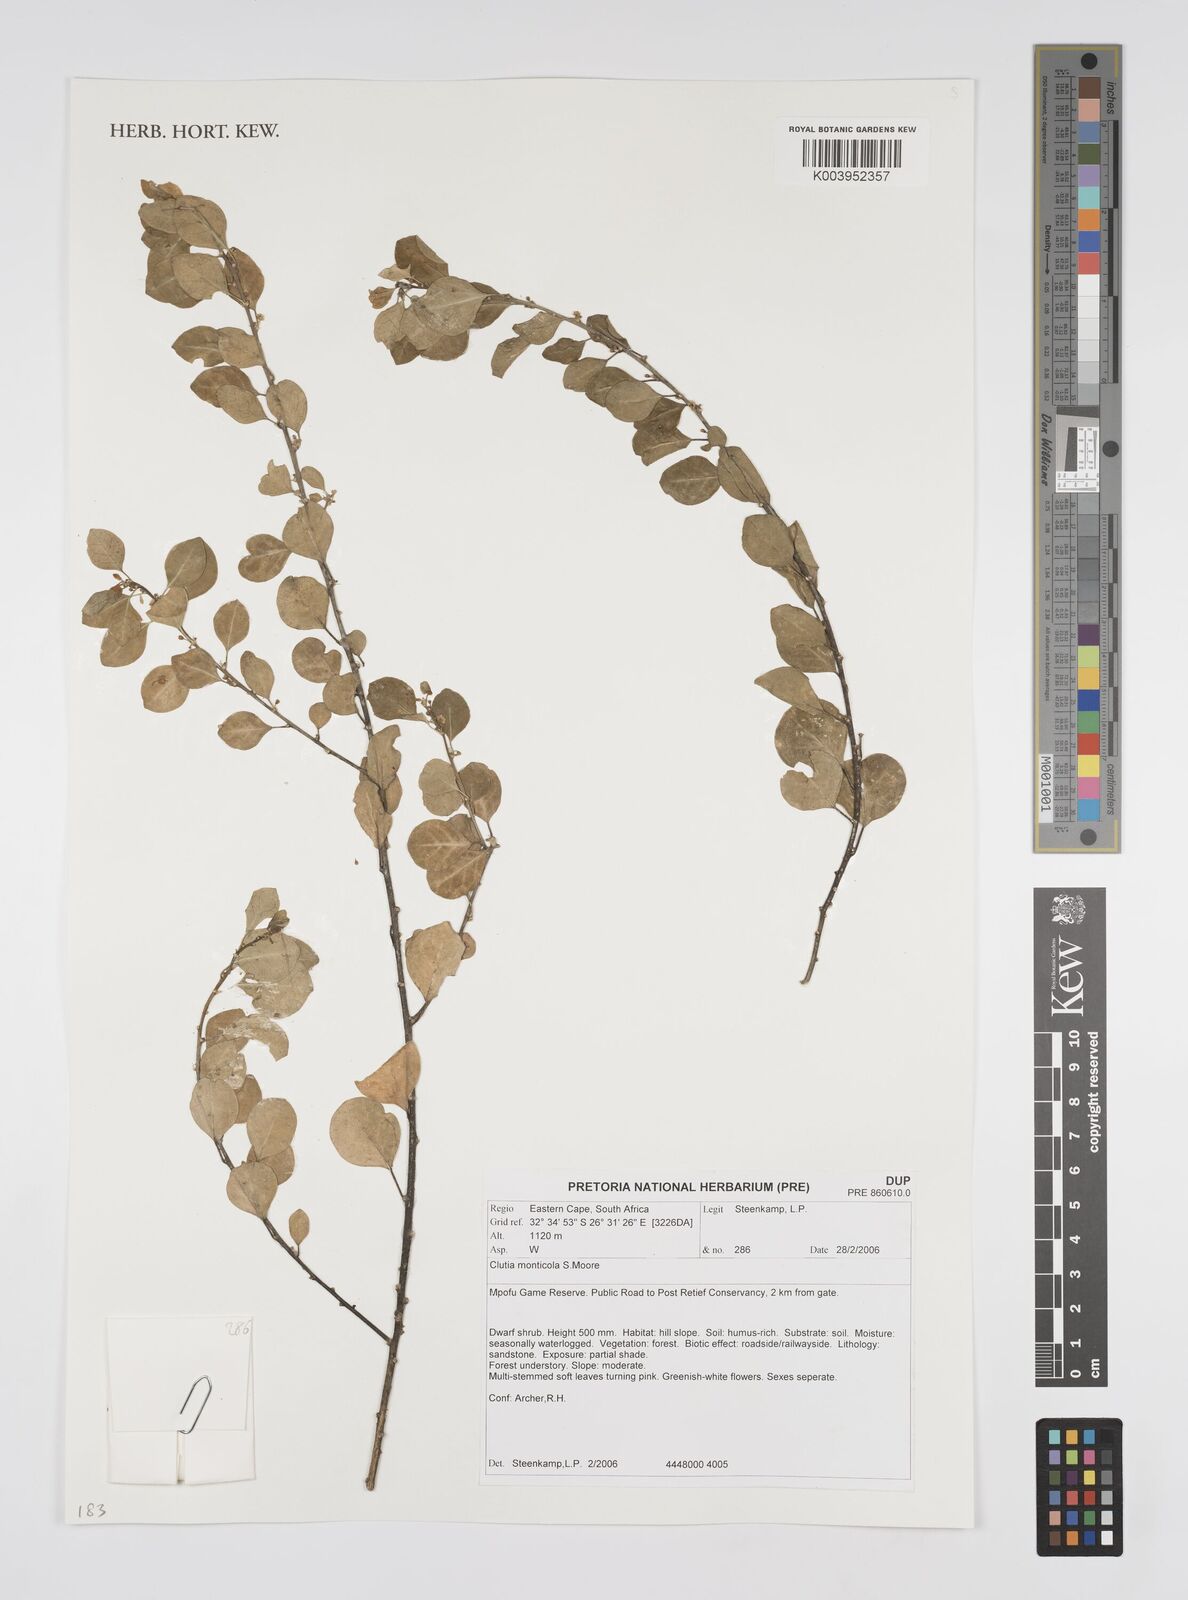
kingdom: Plantae
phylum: Tracheophyta
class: Magnoliopsida
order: Malpighiales
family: Peraceae
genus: Clutia
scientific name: Clutia monticola
